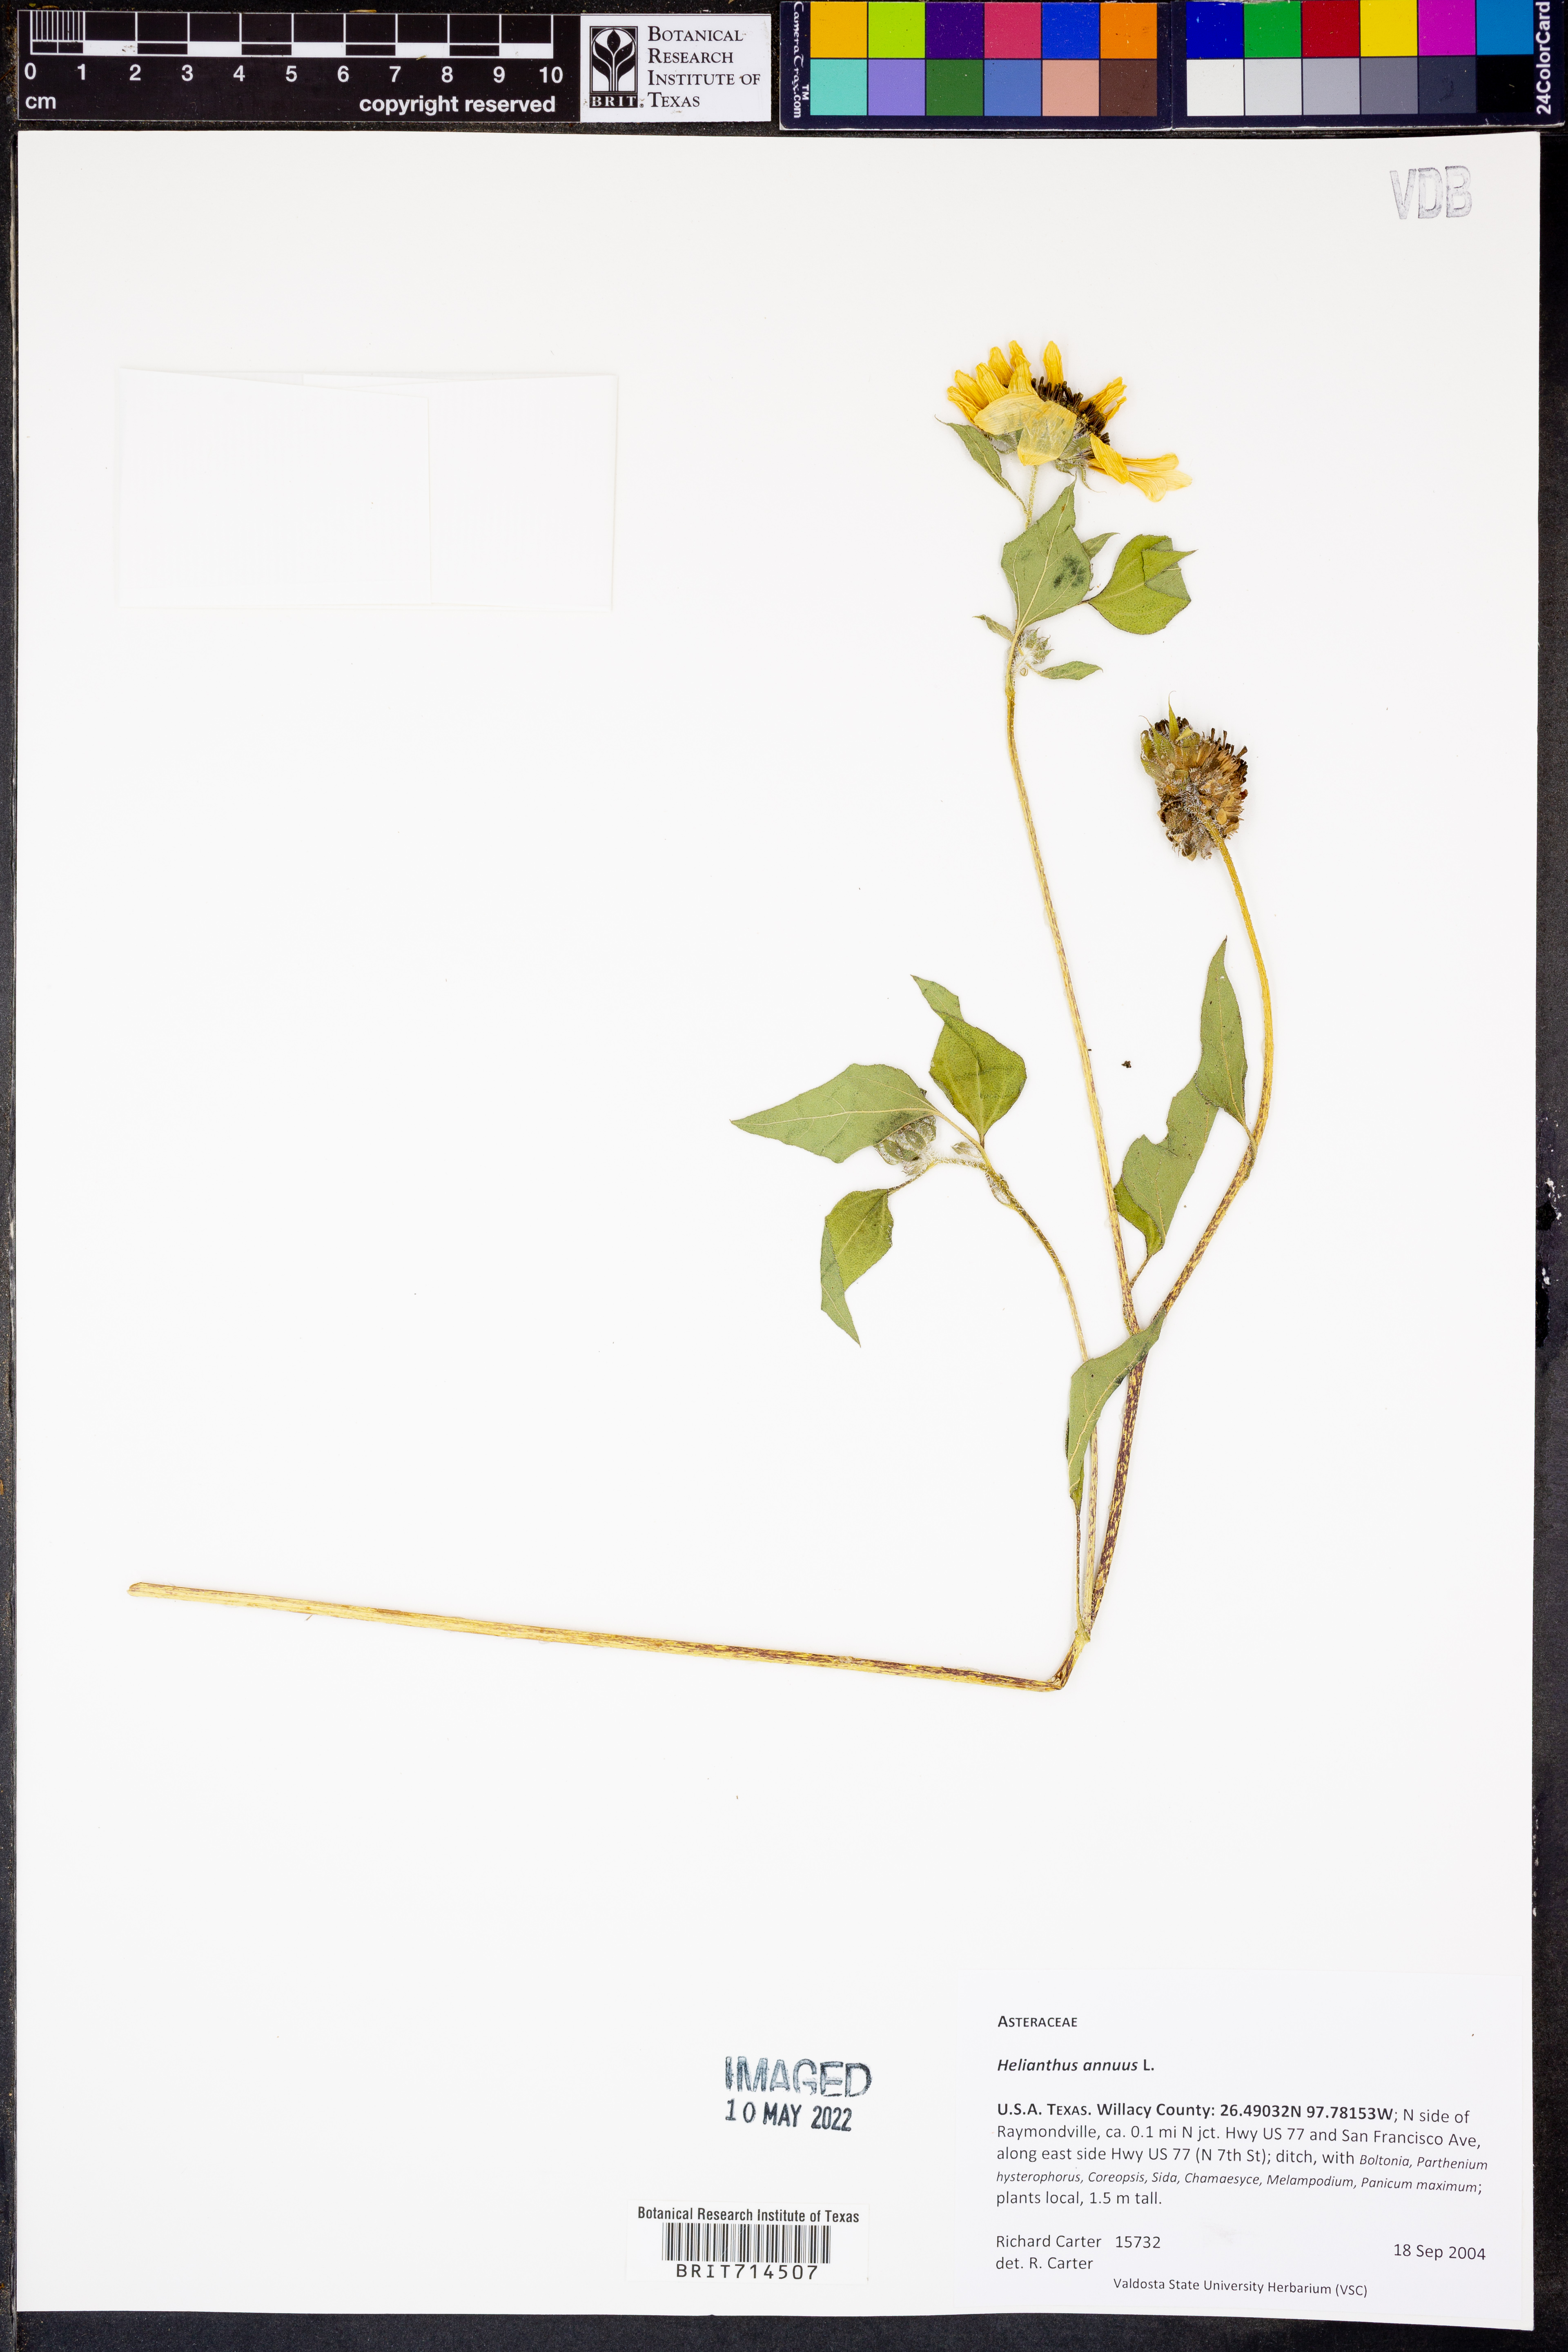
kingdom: Plantae
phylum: Tracheophyta
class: Magnoliopsida
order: Asterales
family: Asteraceae
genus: Helianthus
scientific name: Helianthus annuus
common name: Sunflower
